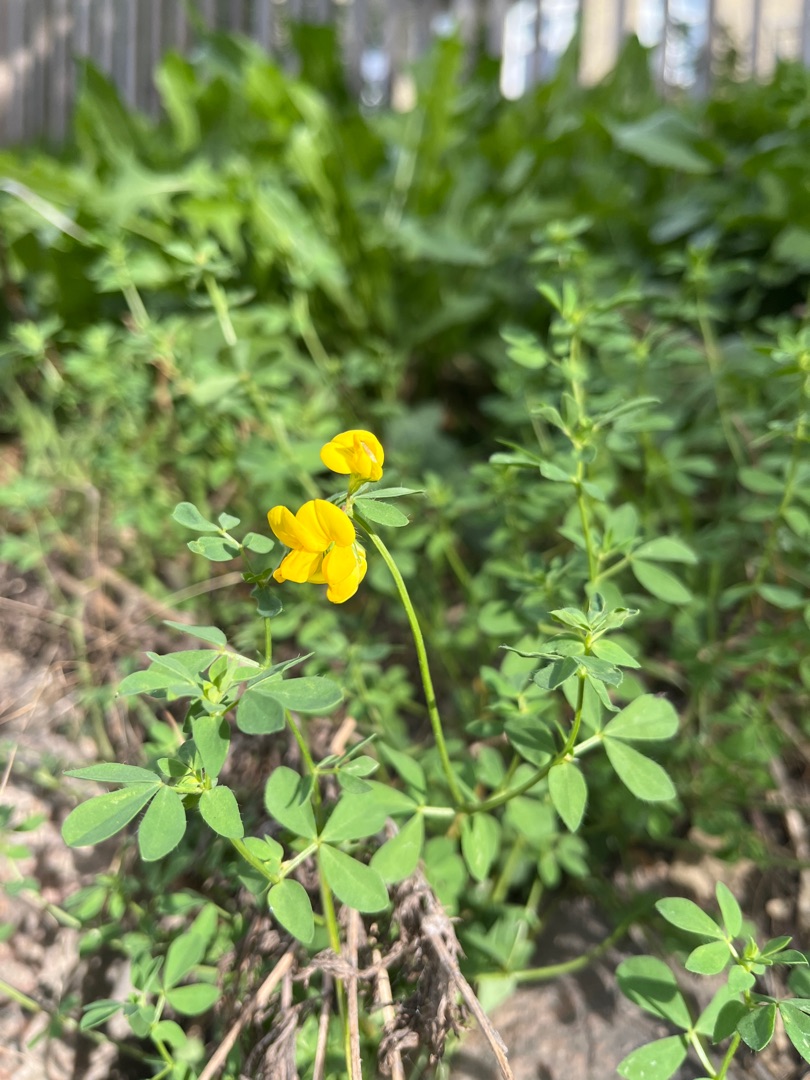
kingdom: Plantae
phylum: Tracheophyta
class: Magnoliopsida
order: Fabales
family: Fabaceae
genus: Lotus
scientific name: Lotus corniculatus
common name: Almindelig kællingetand
